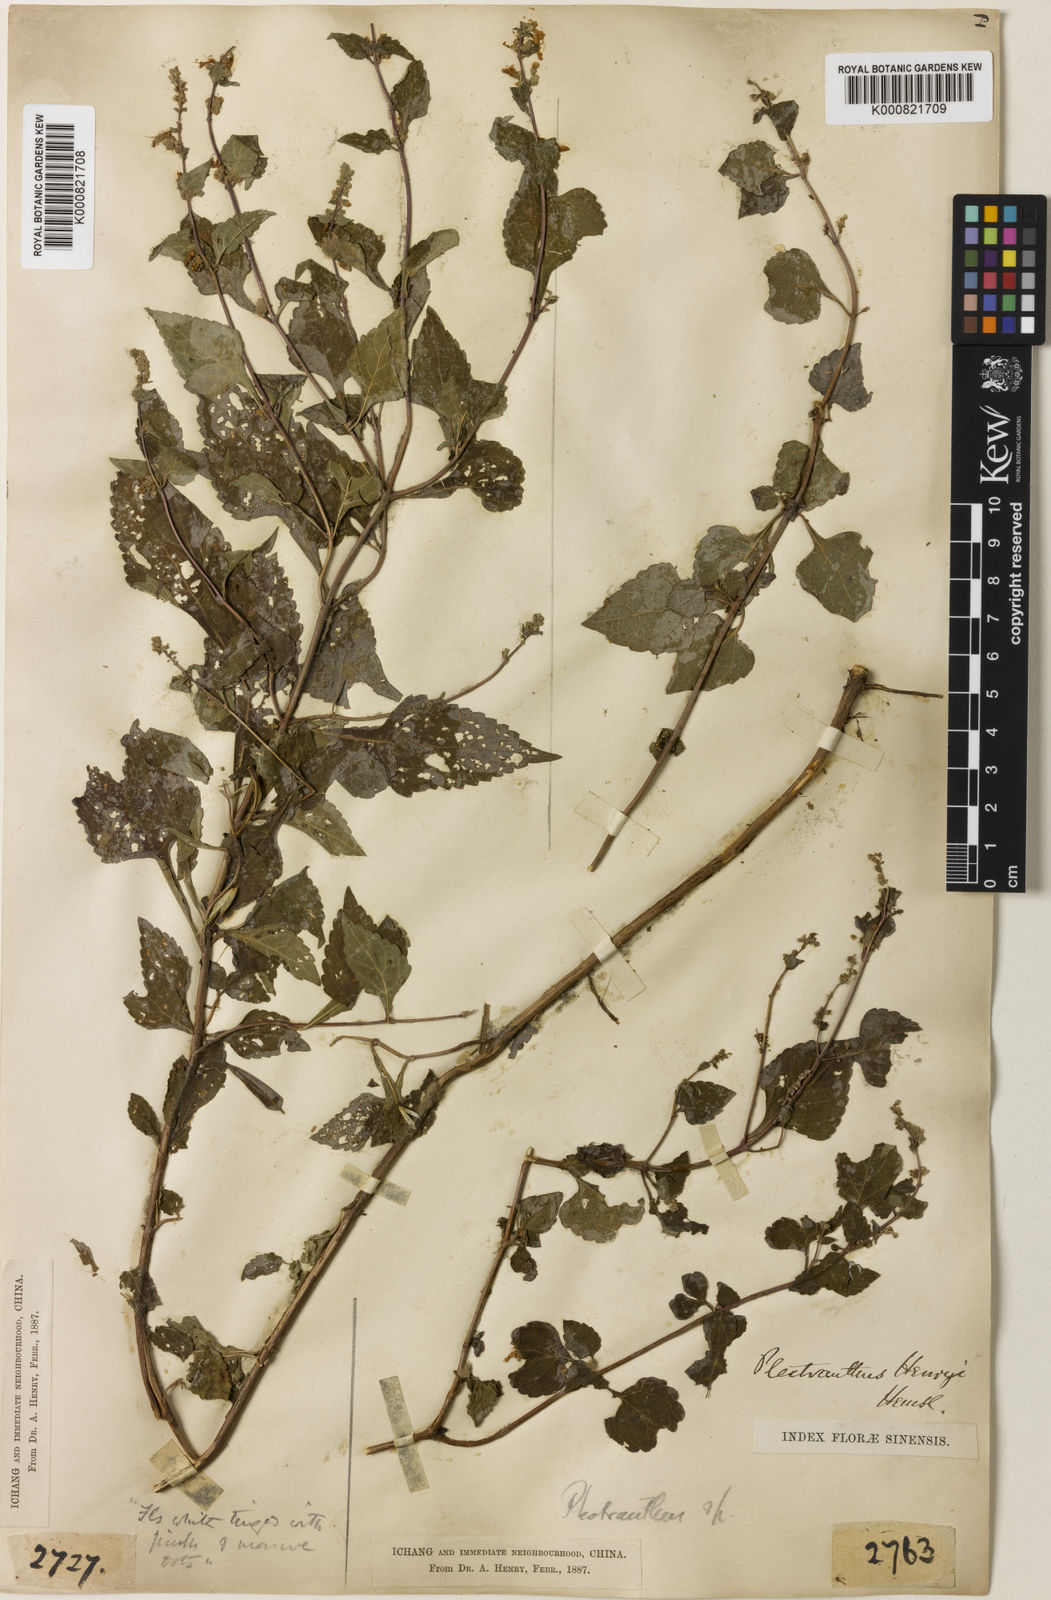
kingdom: Plantae
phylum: Tracheophyta
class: Magnoliopsida
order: Lamiales
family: Lamiaceae
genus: Isodon
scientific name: Isodon
